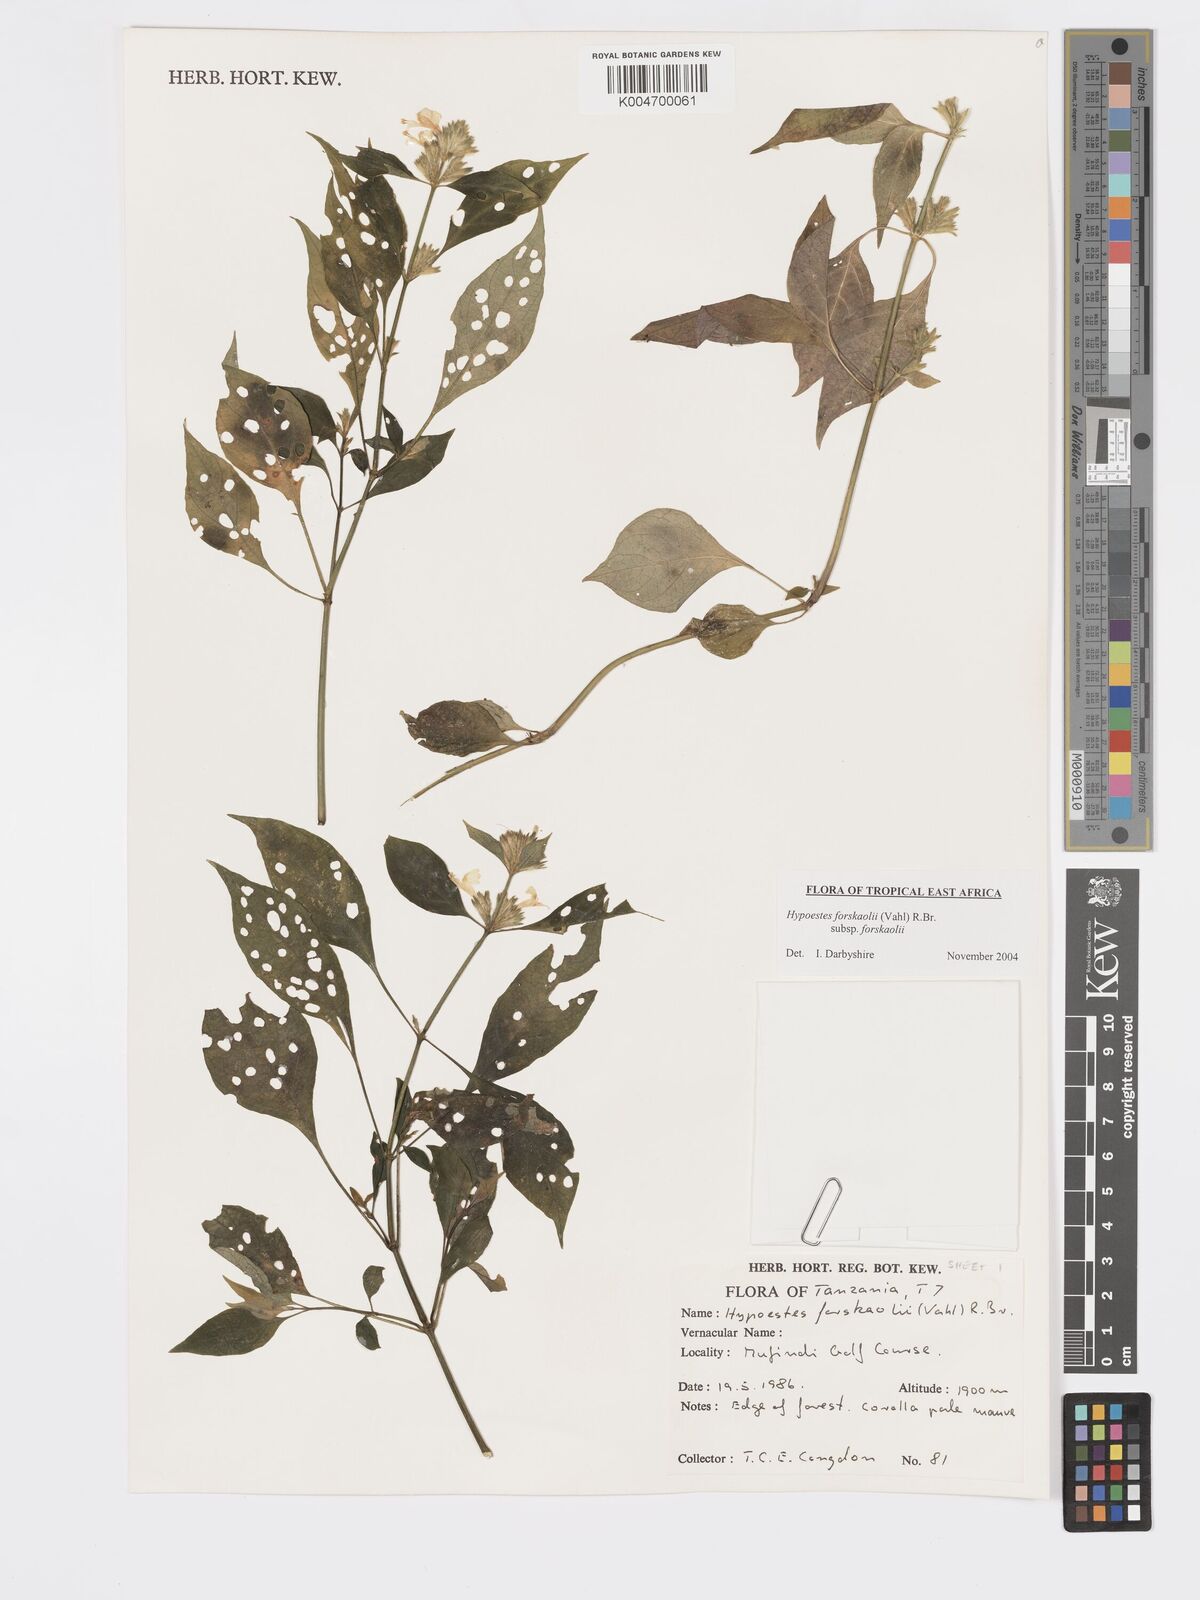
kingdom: Plantae
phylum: Tracheophyta
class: Magnoliopsida
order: Lamiales
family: Acanthaceae
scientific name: Acanthaceae
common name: Acanthaceae
